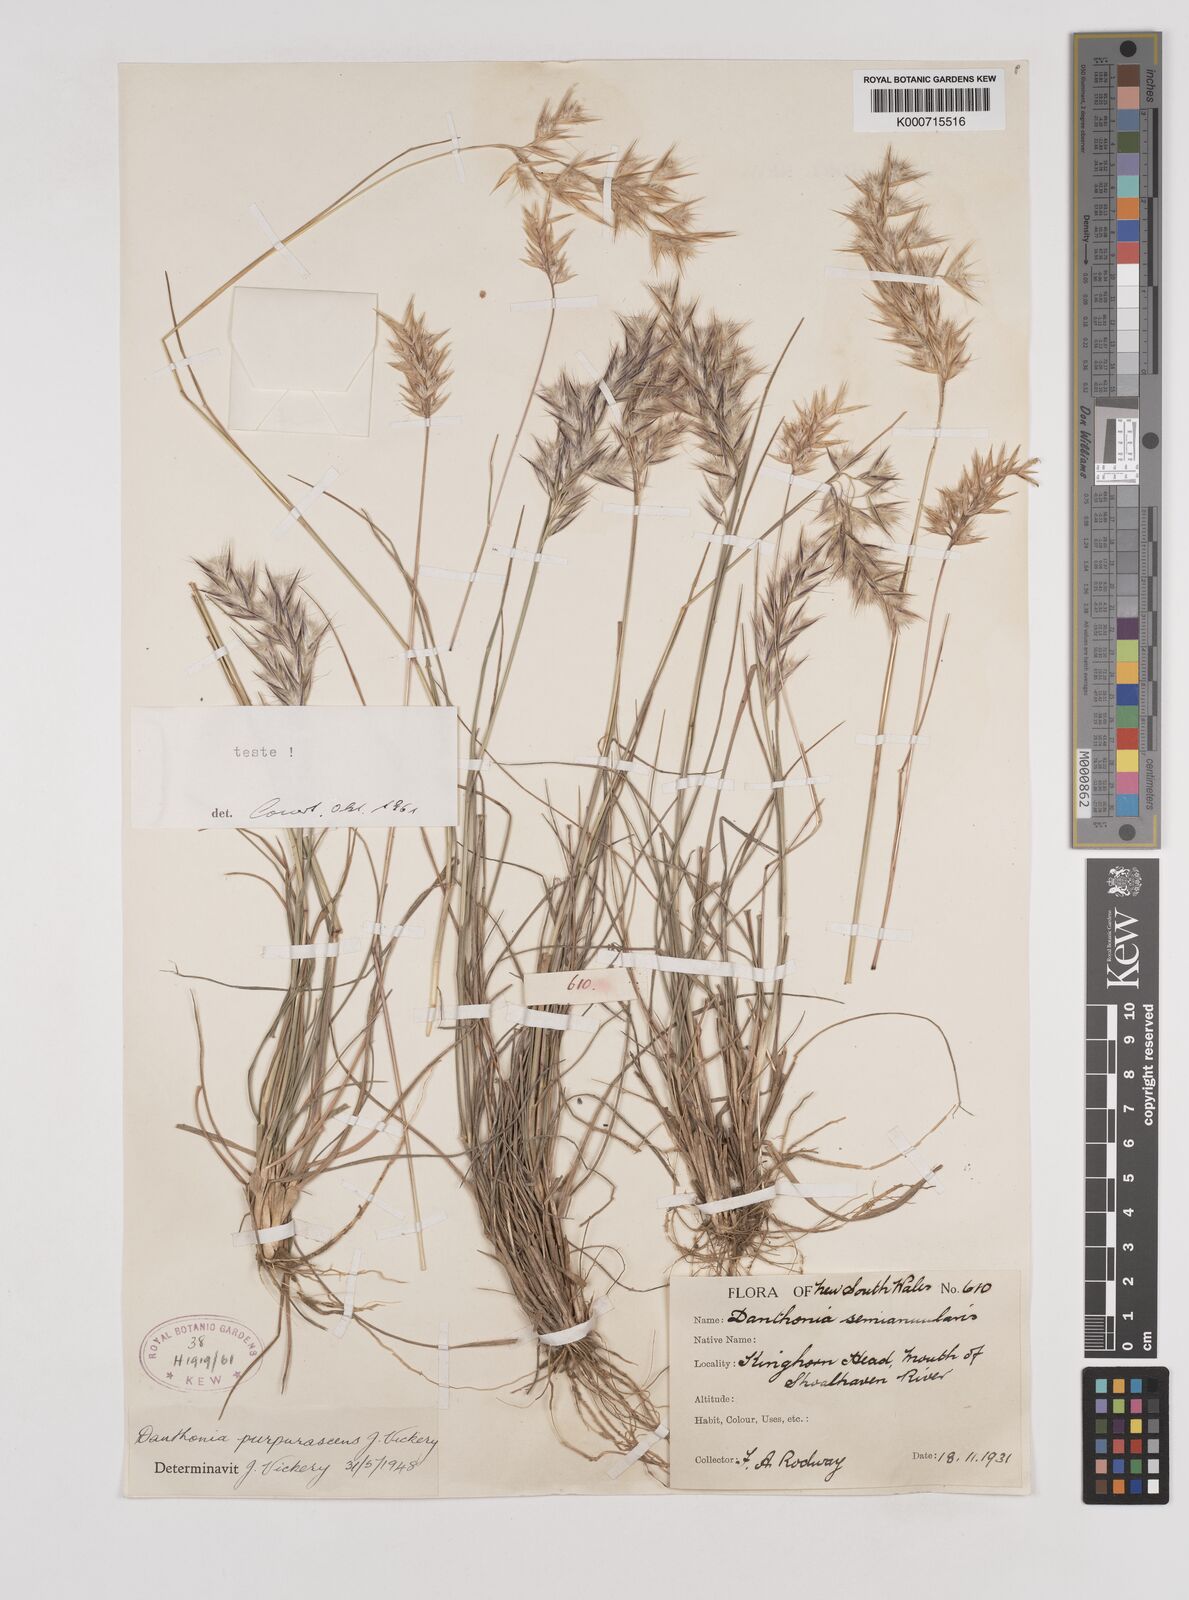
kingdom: Plantae
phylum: Tracheophyta
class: Liliopsida
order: Poales
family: Poaceae
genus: Rytidosperma
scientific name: Rytidosperma tenuius
